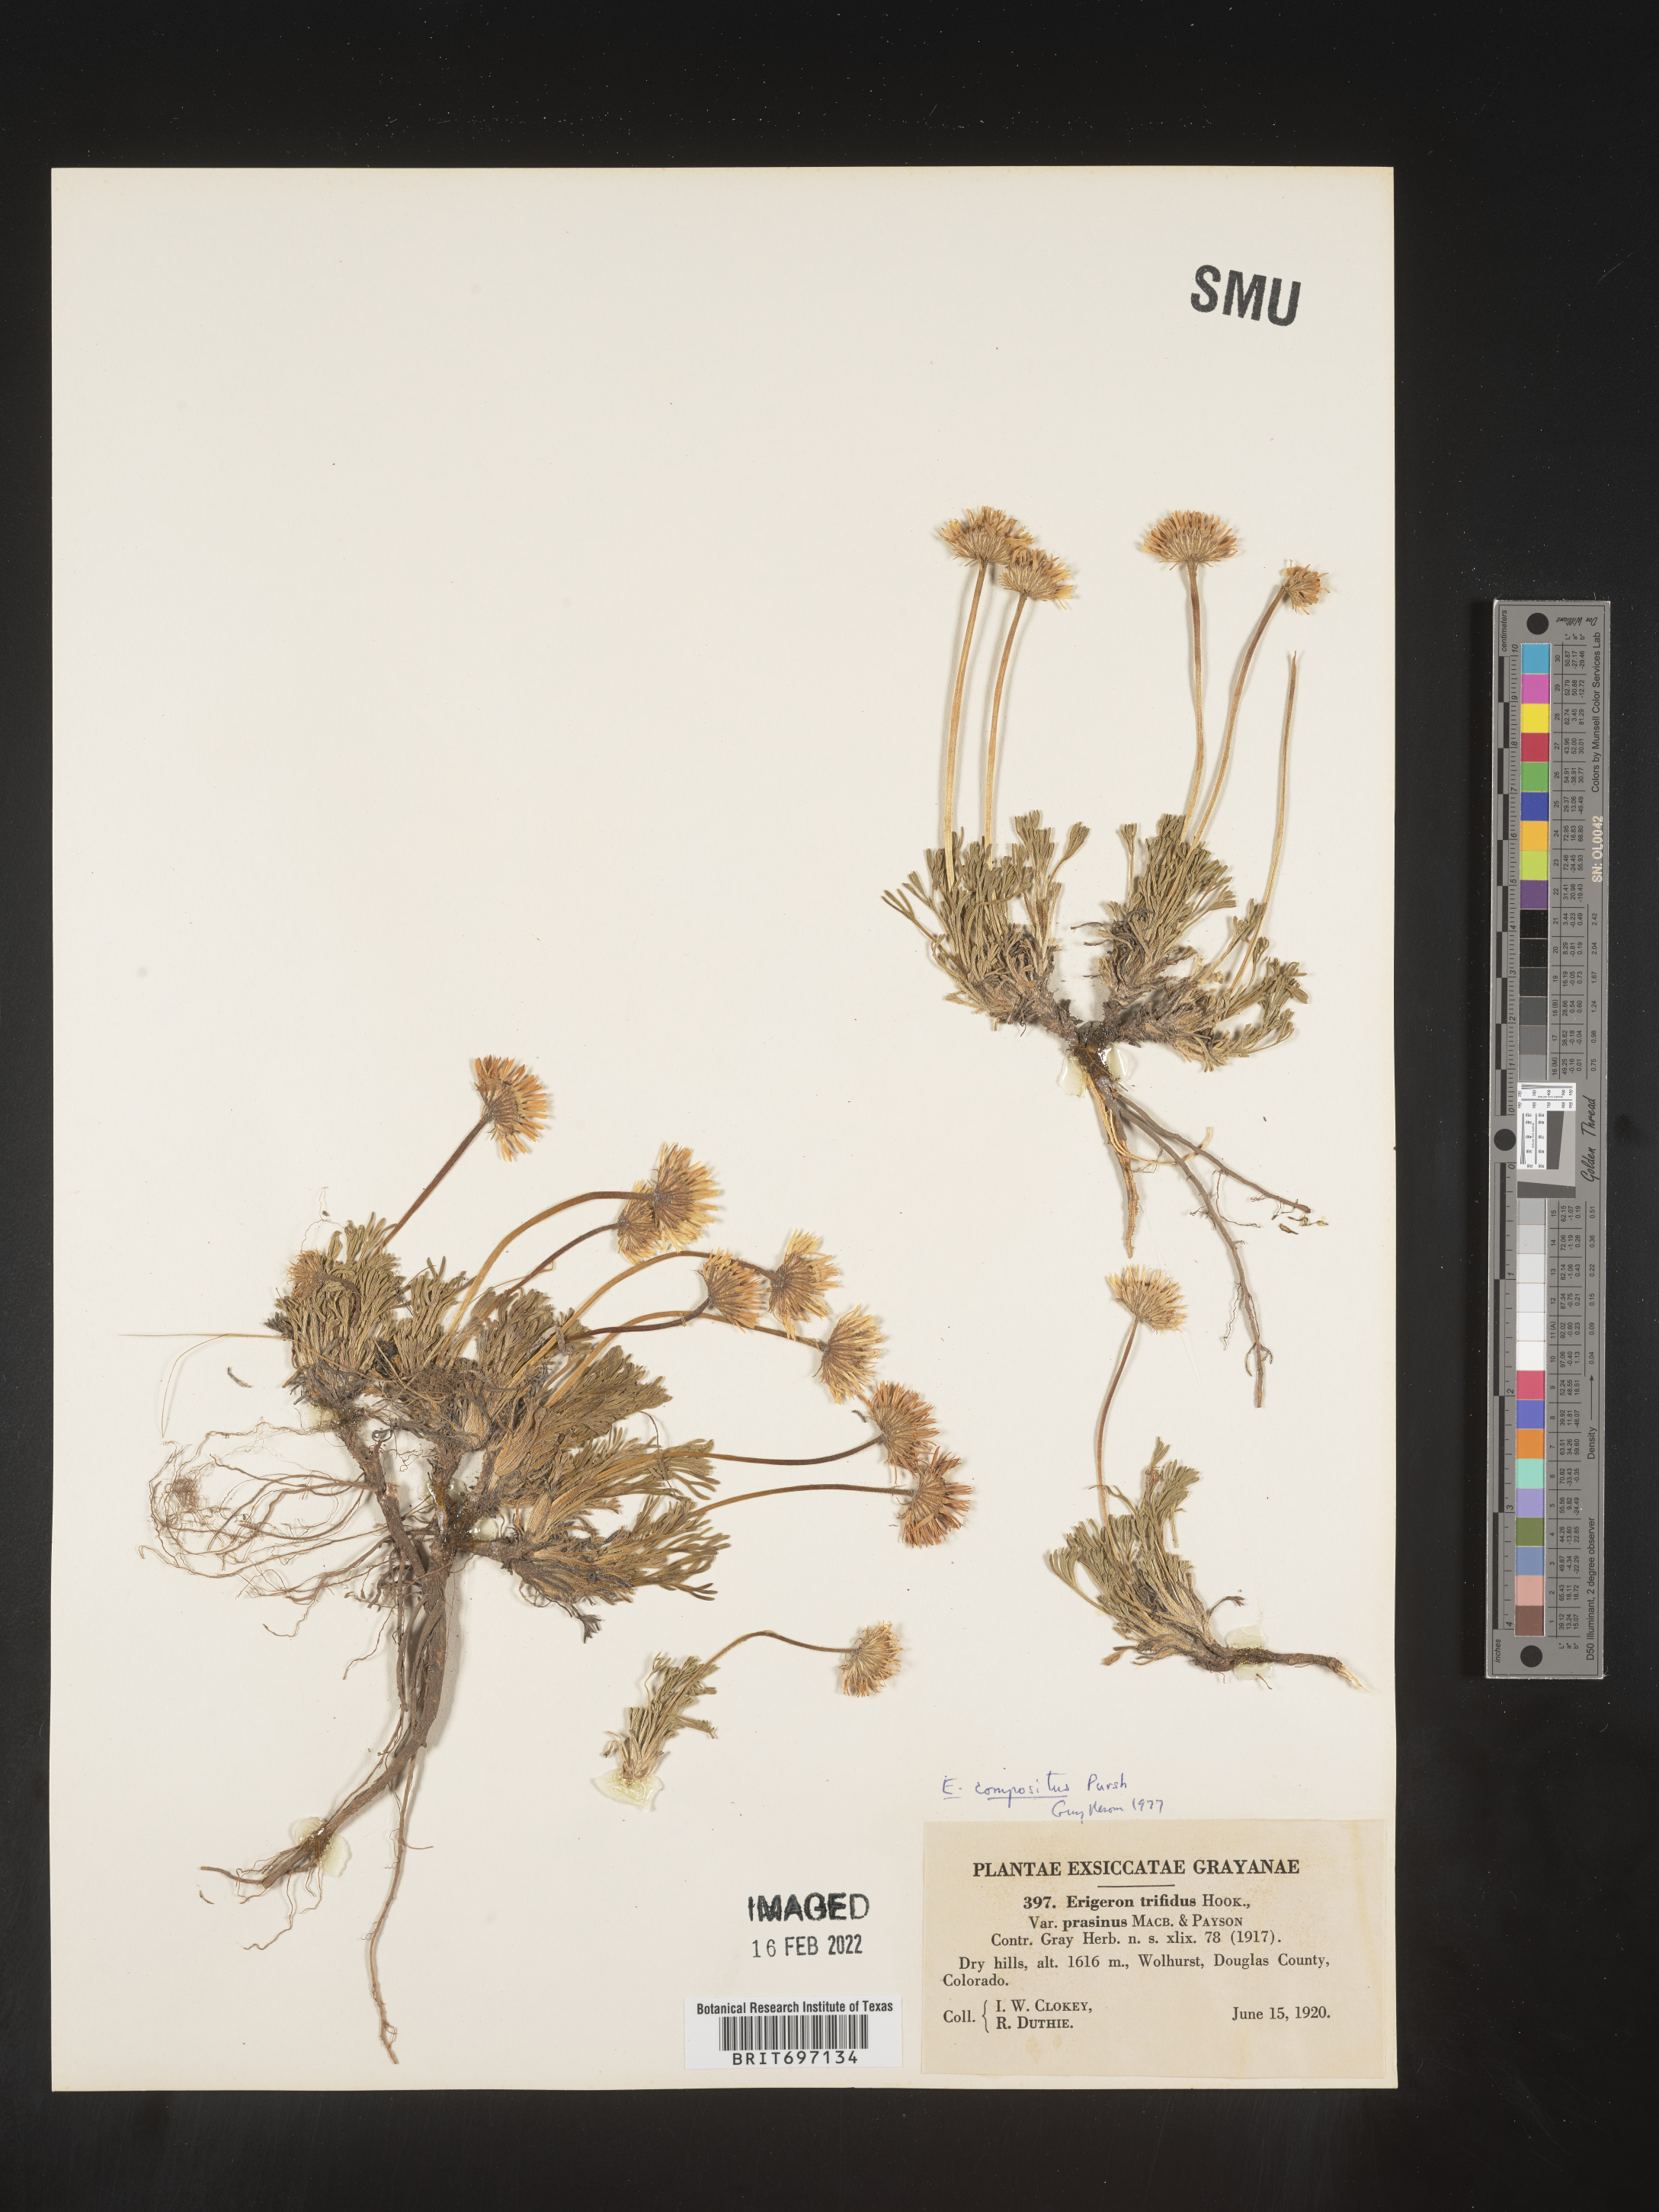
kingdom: Plantae
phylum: Tracheophyta
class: Magnoliopsida
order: Asterales
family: Asteraceae
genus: Erigeron
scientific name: Erigeron compositus
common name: Dwarf mountain fleabane
